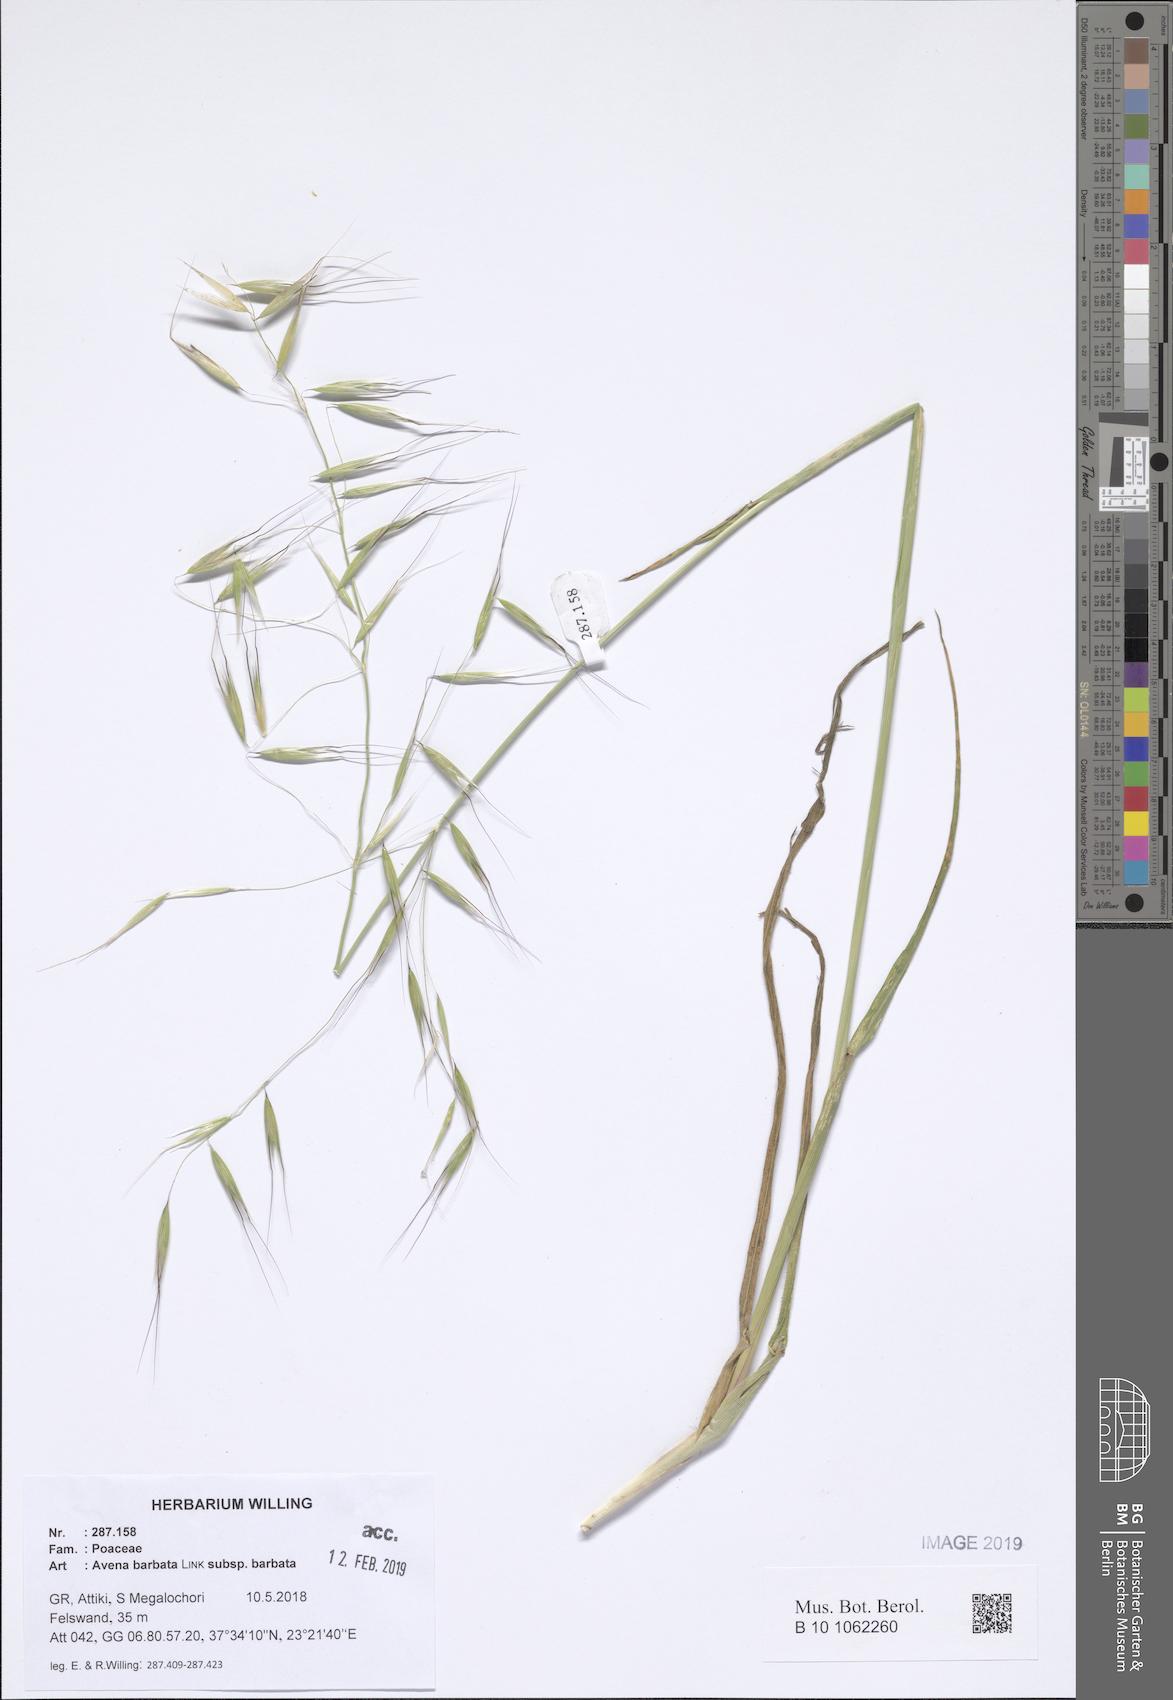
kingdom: Plantae
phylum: Tracheophyta
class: Liliopsida
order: Poales
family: Poaceae
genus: Avena
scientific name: Avena barbata
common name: Slender oat
